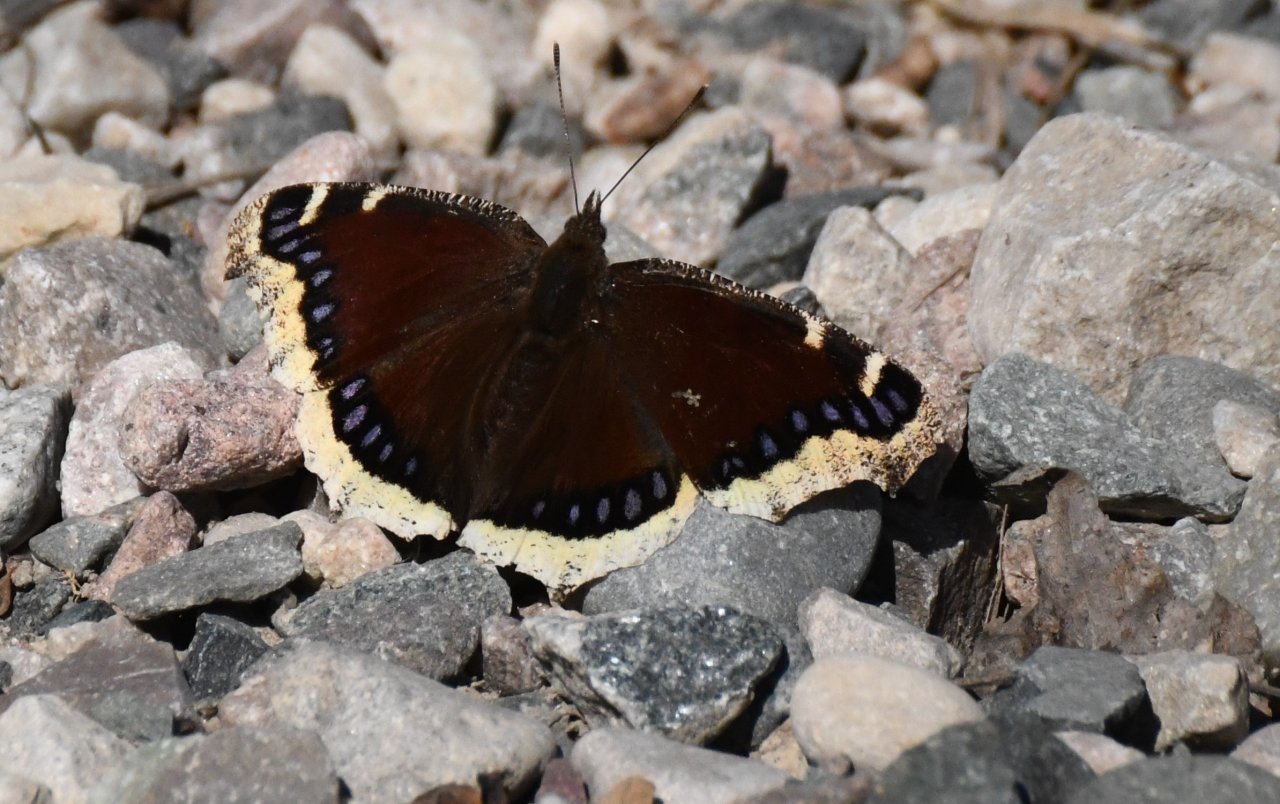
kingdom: Animalia
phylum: Arthropoda
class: Insecta
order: Lepidoptera
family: Nymphalidae
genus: Nymphalis
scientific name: Nymphalis antiopa
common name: Mourning Cloak
